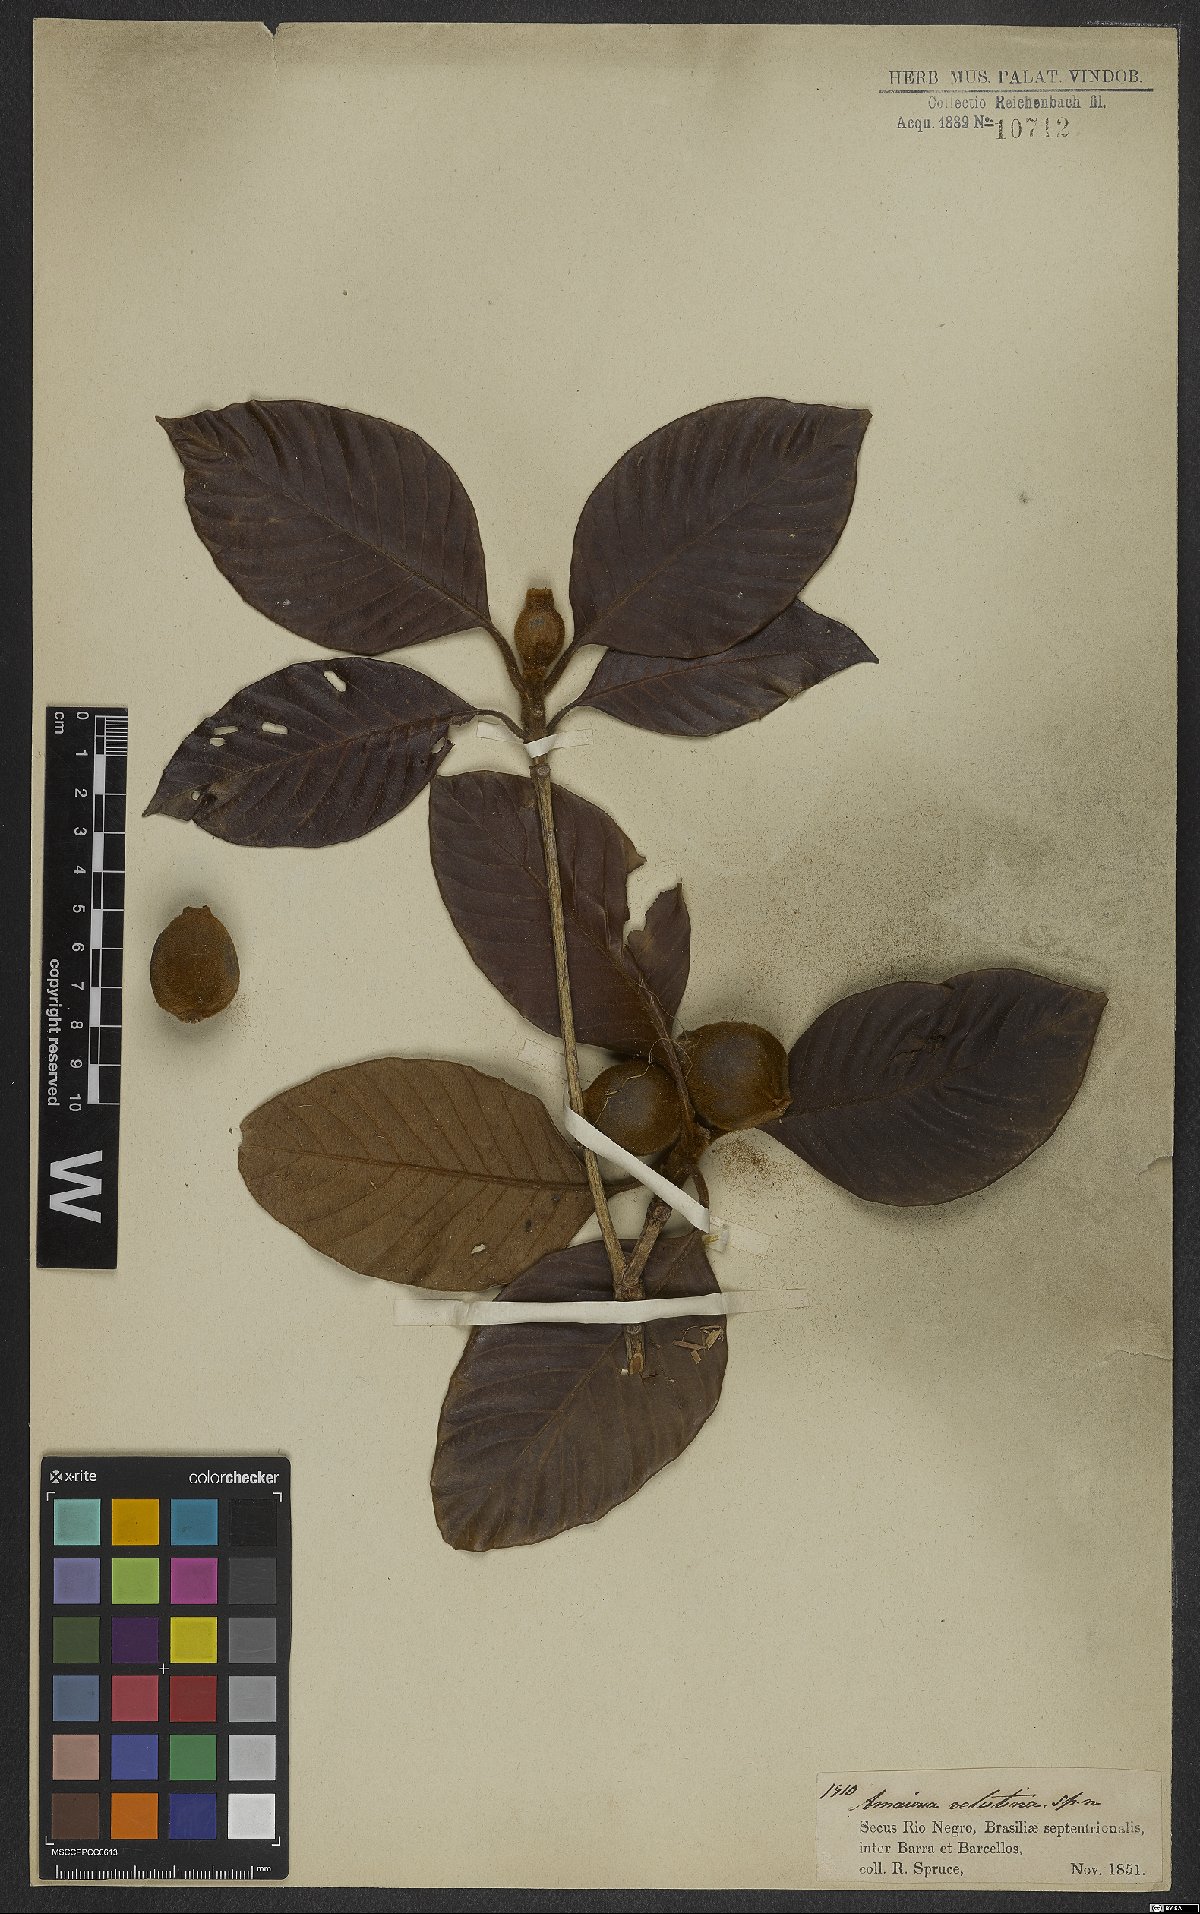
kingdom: Plantae
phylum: Tracheophyta
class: Magnoliopsida
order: Gentianales
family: Rubiaceae
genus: Duroia
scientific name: Duroia velutina
